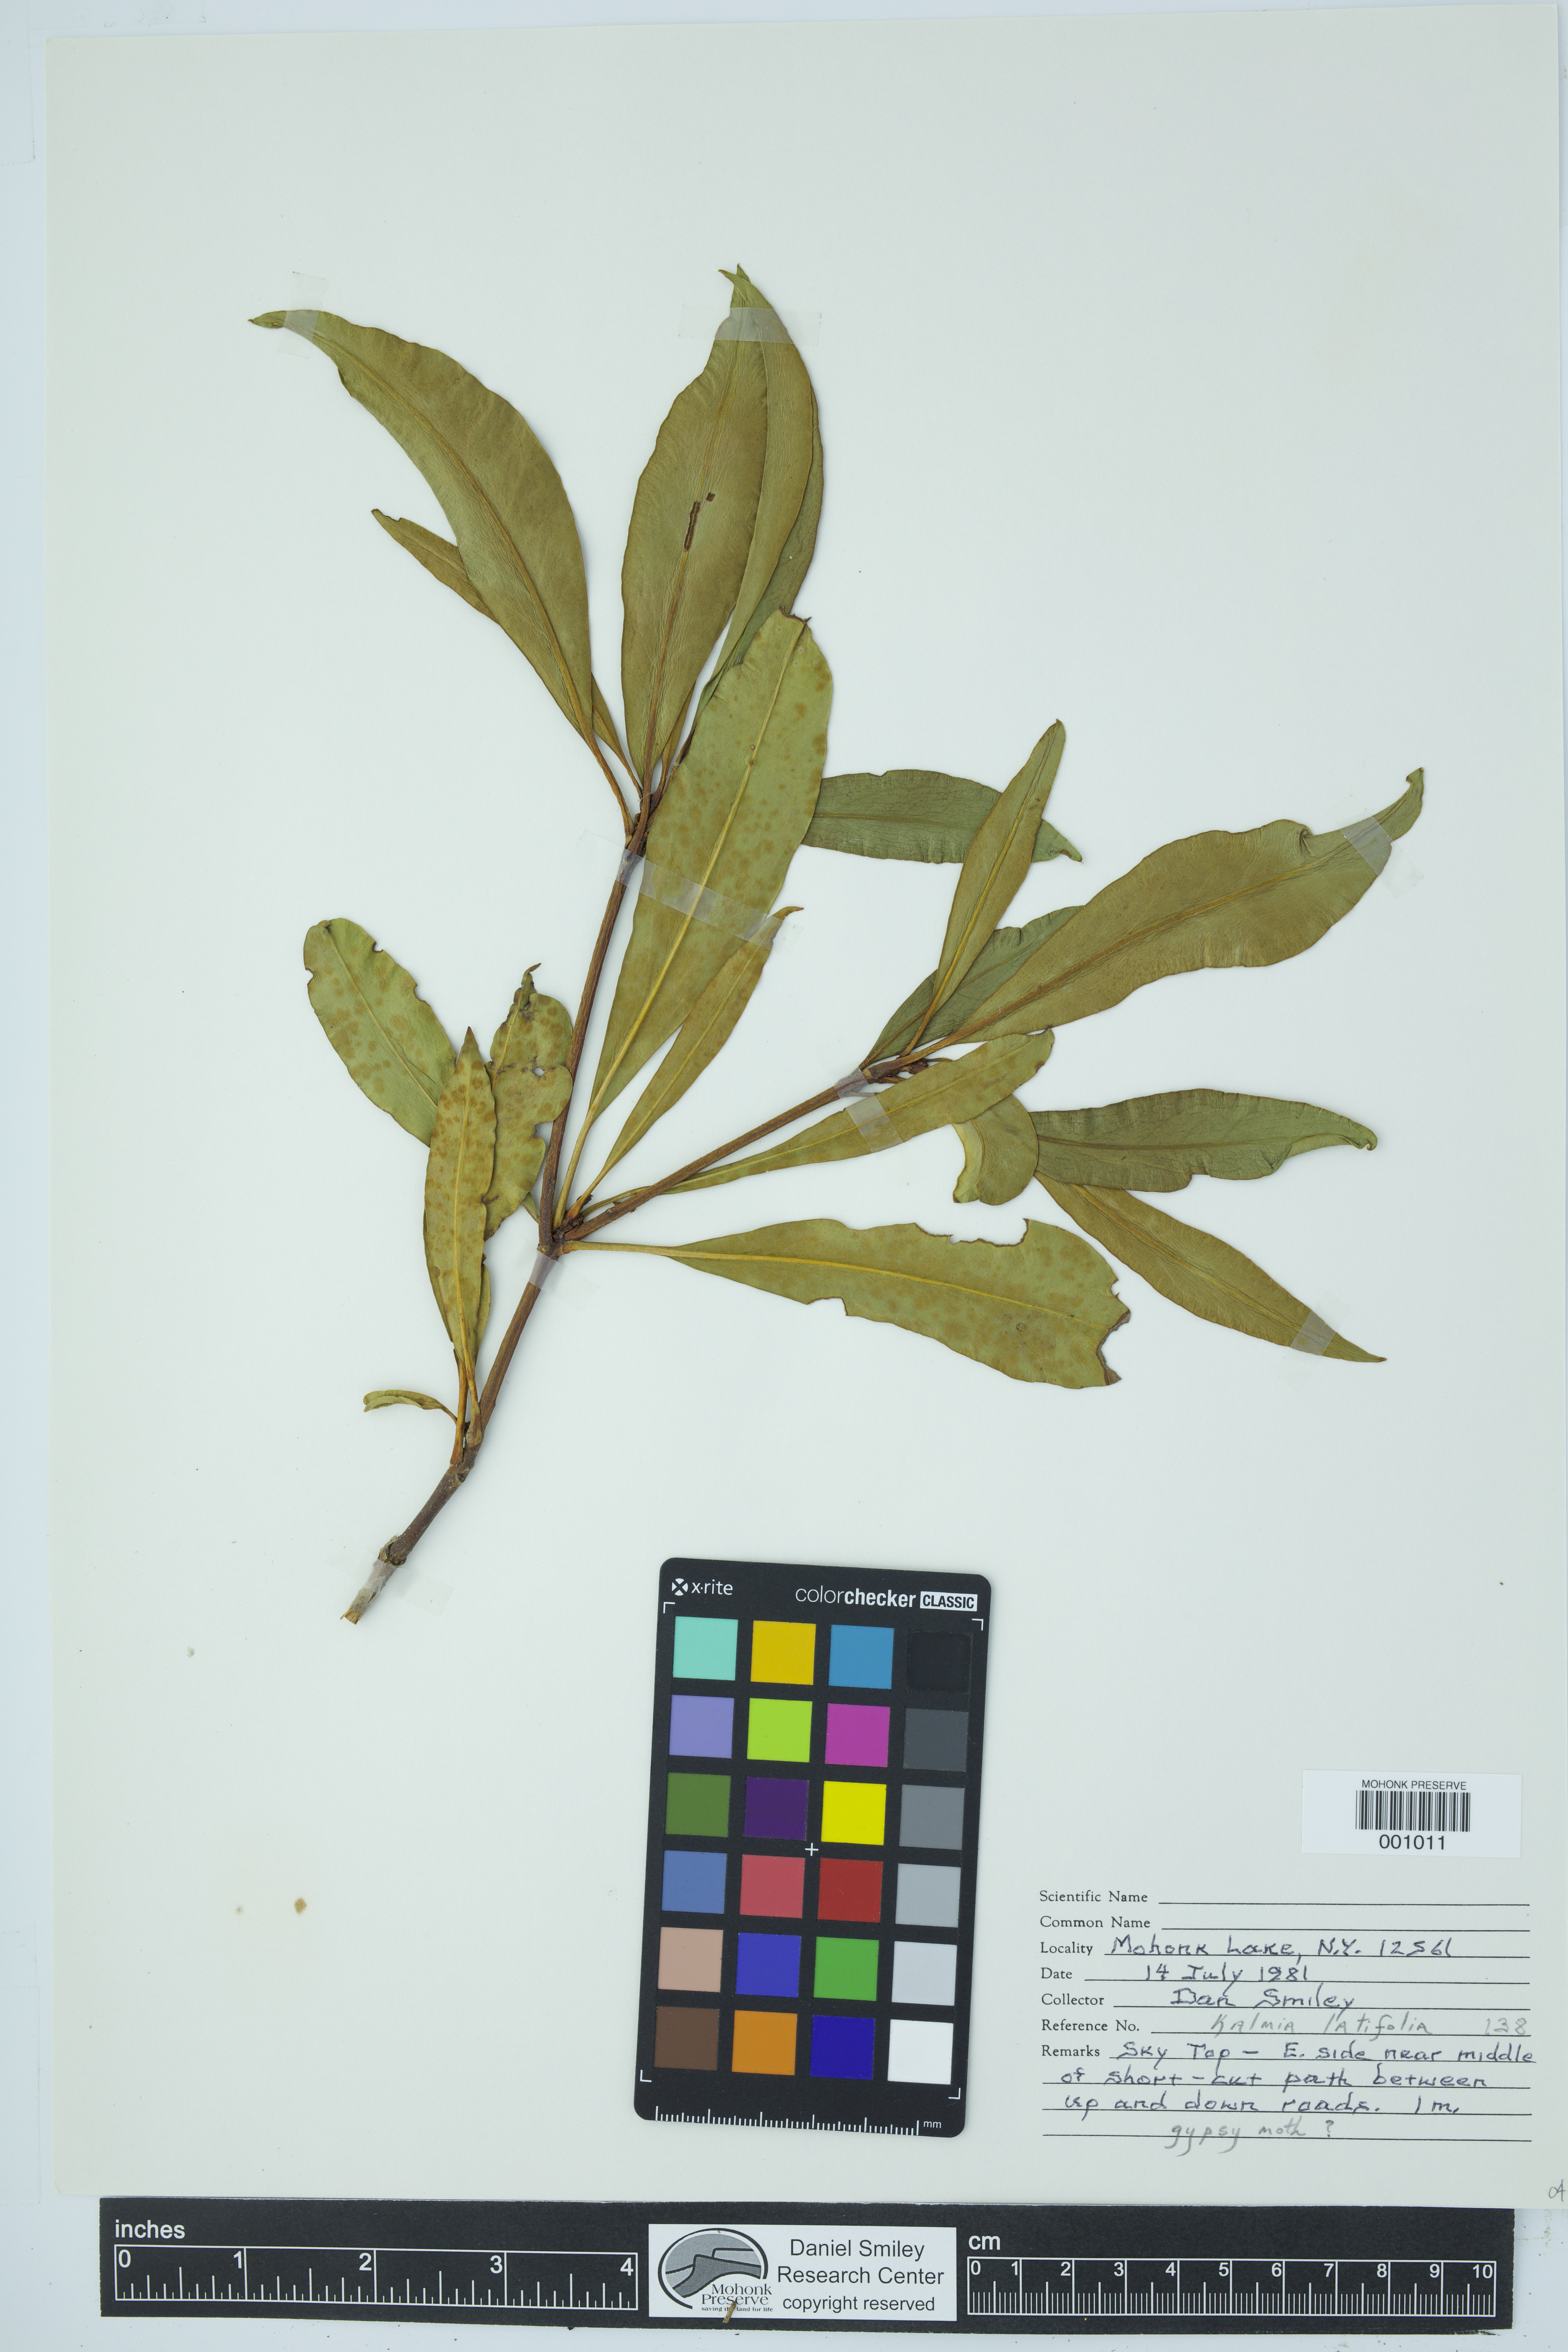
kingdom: Plantae
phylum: Tracheophyta
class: Magnoliopsida
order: Ericales
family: Ericaceae
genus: Kalmia
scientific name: Kalmia latifolia
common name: Mountain-laurel
